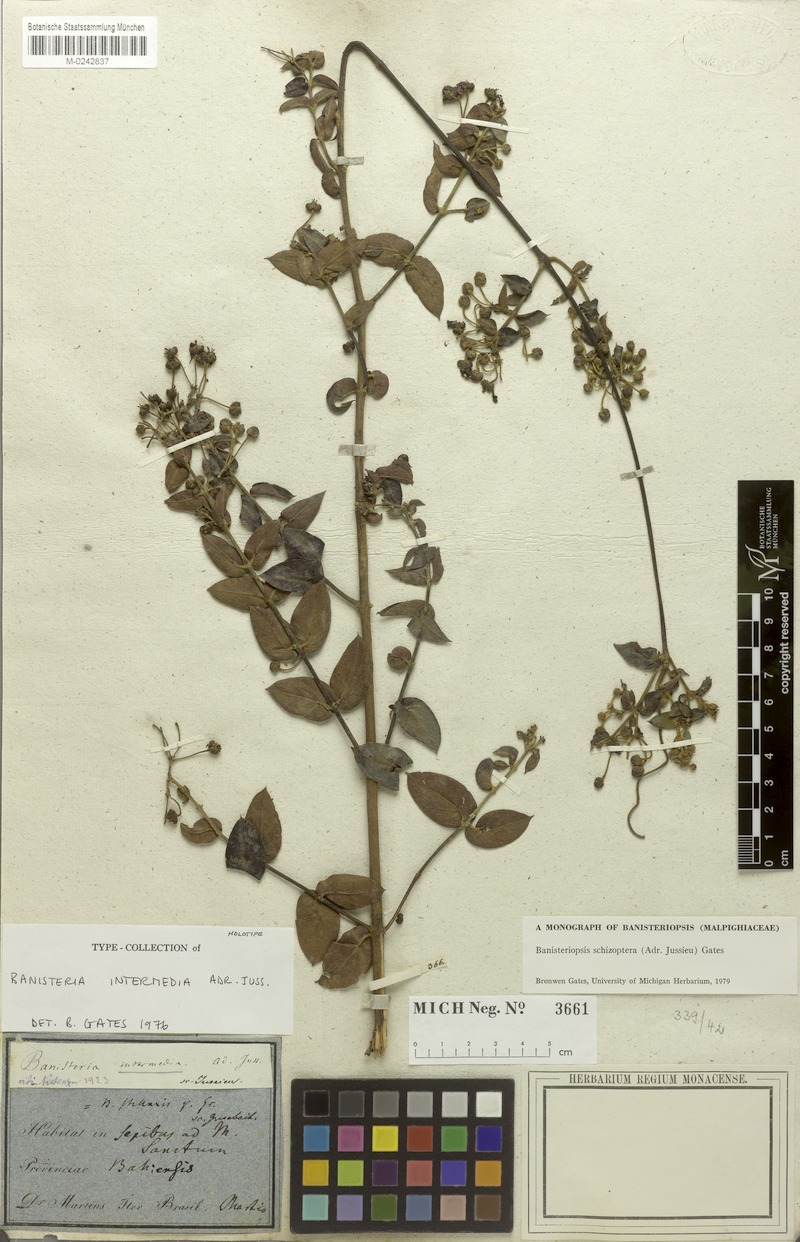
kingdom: Plantae
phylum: Tracheophyta
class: Magnoliopsida
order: Malpighiales
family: Malpighiaceae
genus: Banisteriopsis
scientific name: Banisteriopsis schizoptera
